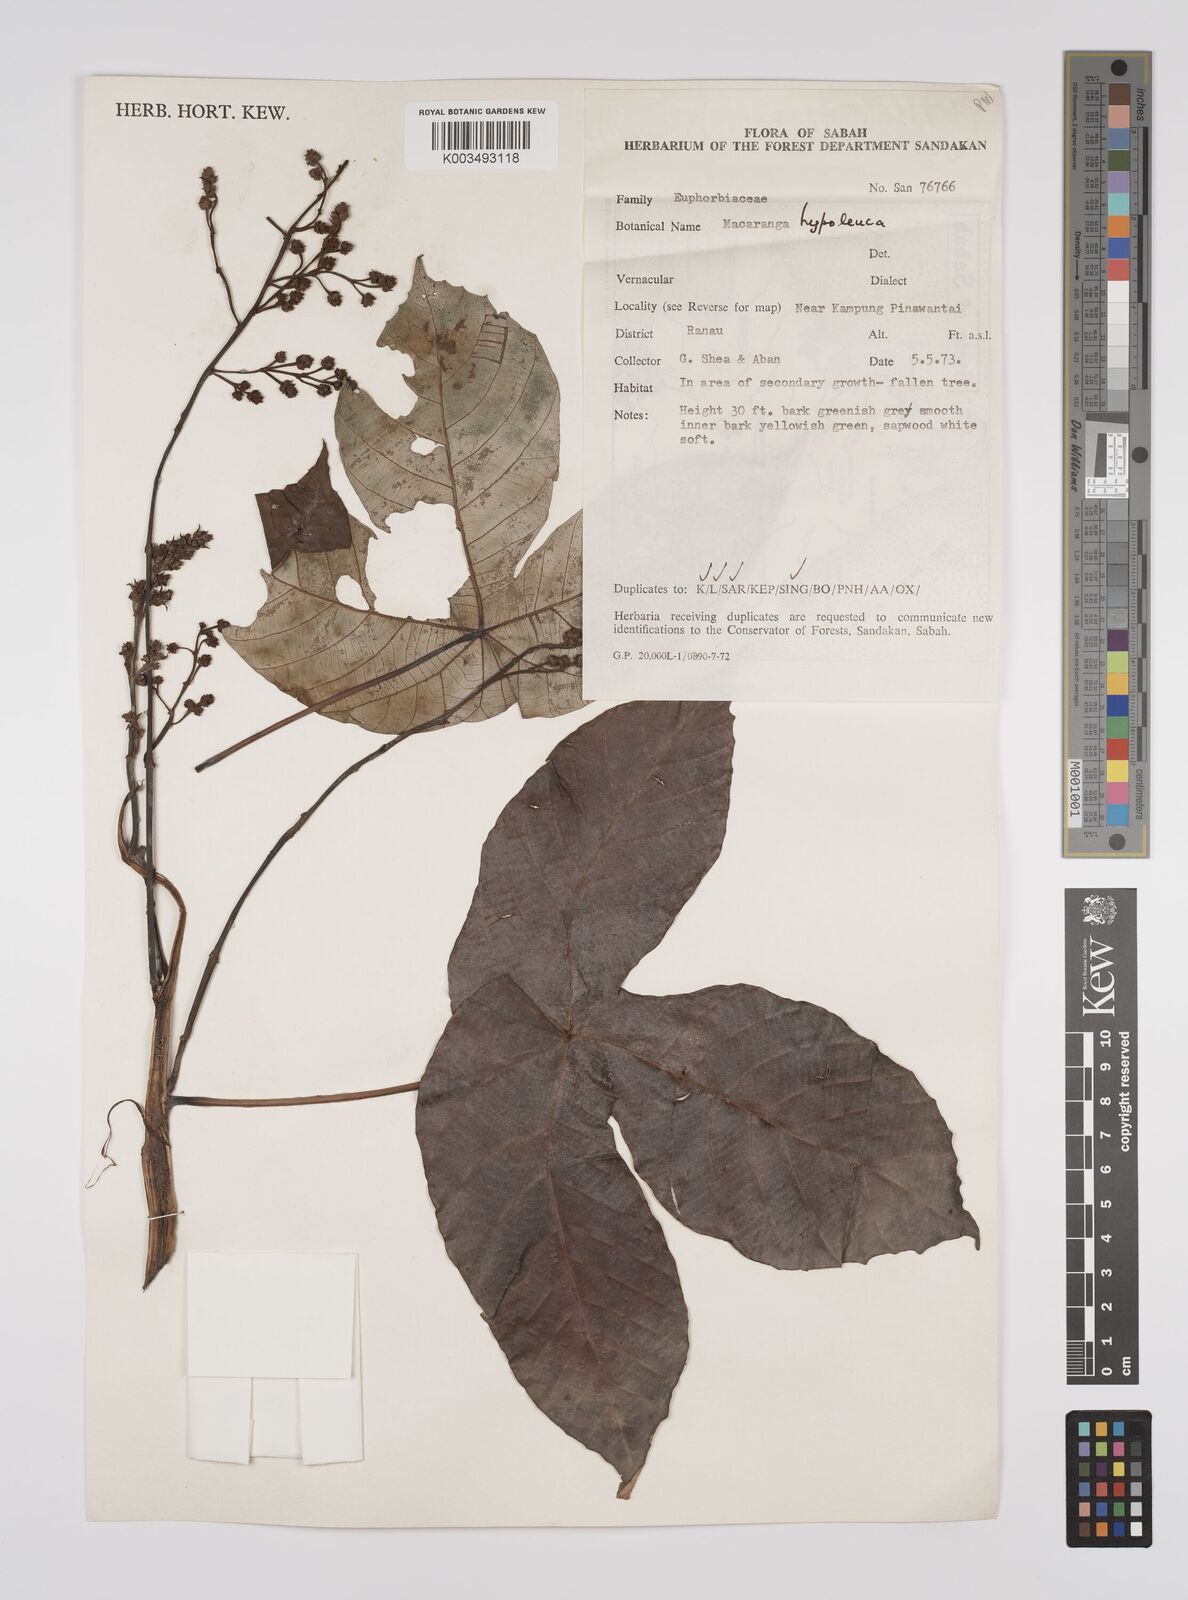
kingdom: Plantae
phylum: Tracheophyta
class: Magnoliopsida
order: Malpighiales
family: Euphorbiaceae
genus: Macaranga
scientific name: Macaranga hypoleuca
